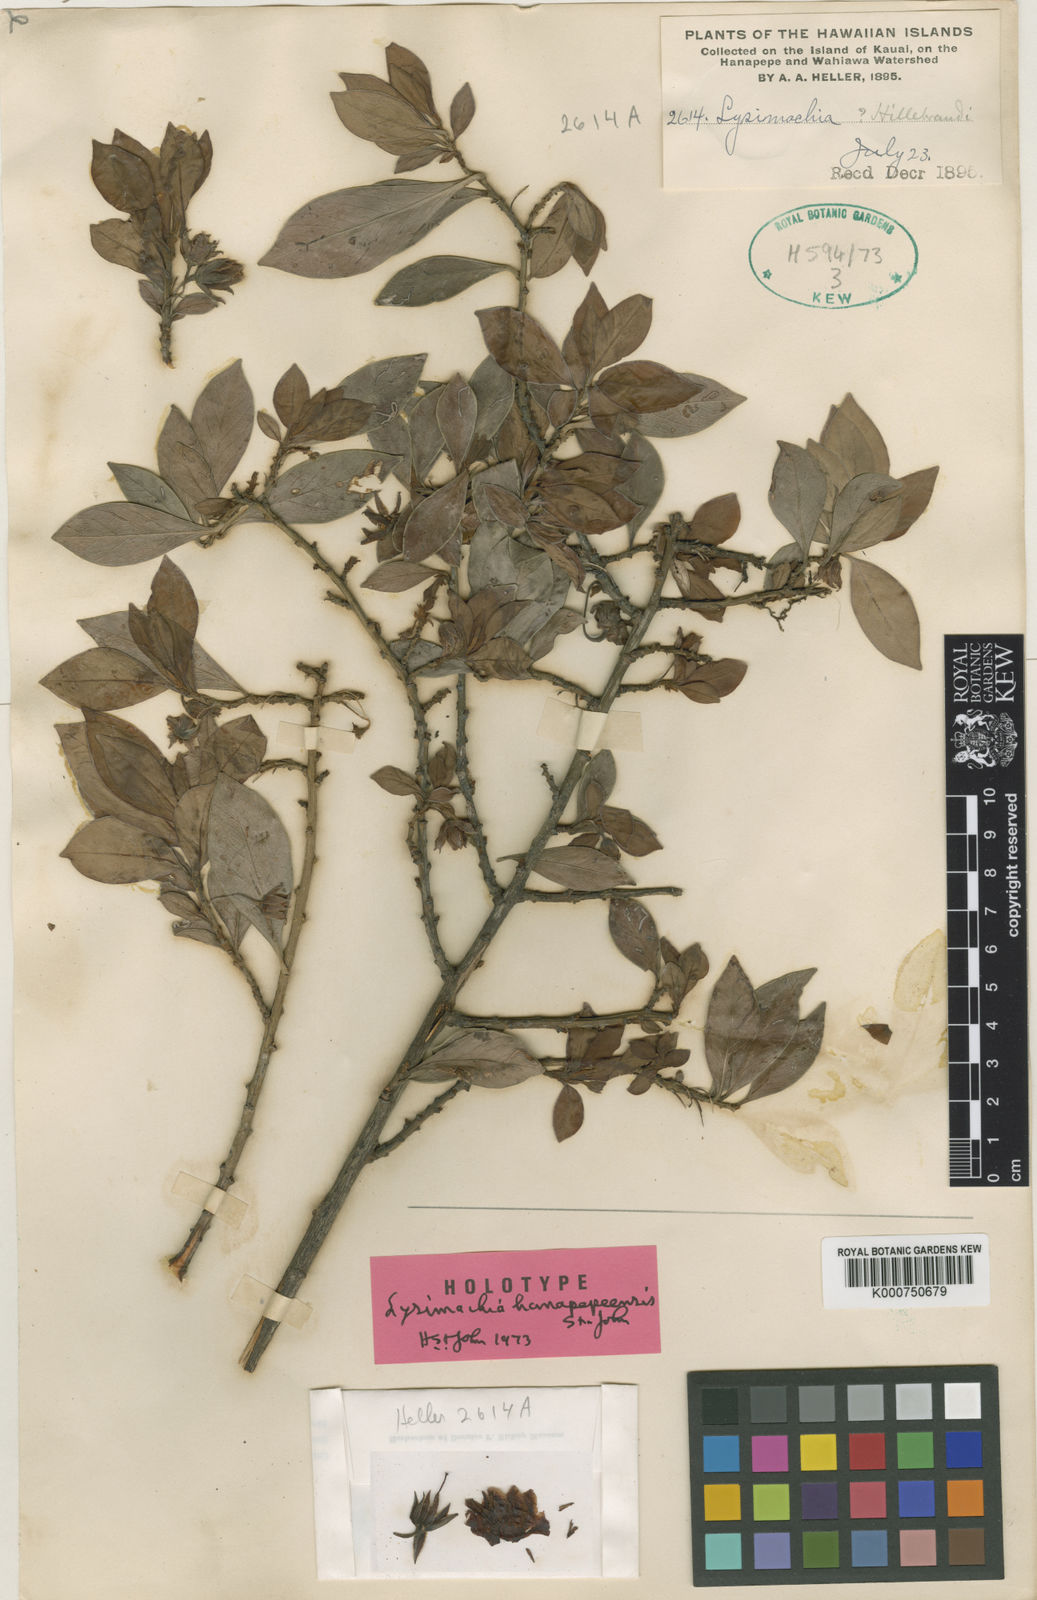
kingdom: Plantae
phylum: Tracheophyta
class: Magnoliopsida
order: Ericales
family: Primulaceae
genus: Lysimachia
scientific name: Lysimachia kalalauensis
